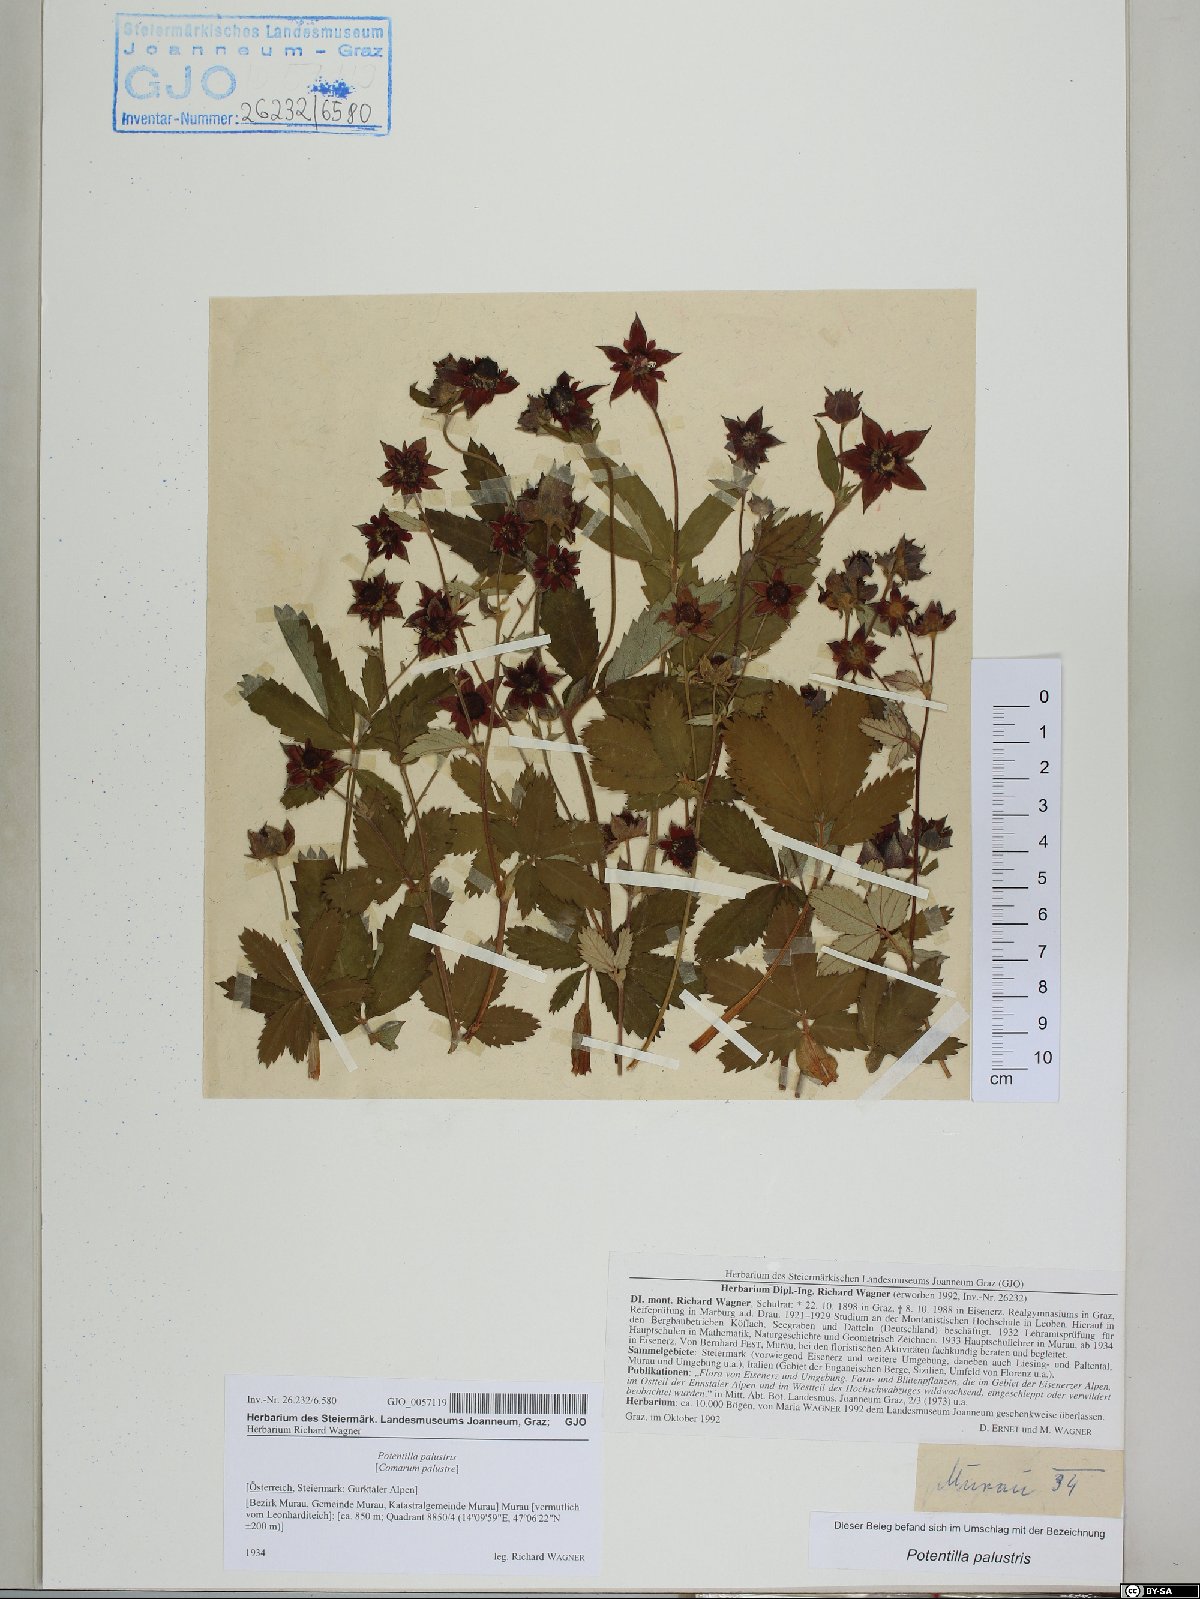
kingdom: Plantae
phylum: Tracheophyta
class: Magnoliopsida
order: Rosales
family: Rosaceae
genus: Comarum
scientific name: Comarum palustre
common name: Marsh cinquefoil
